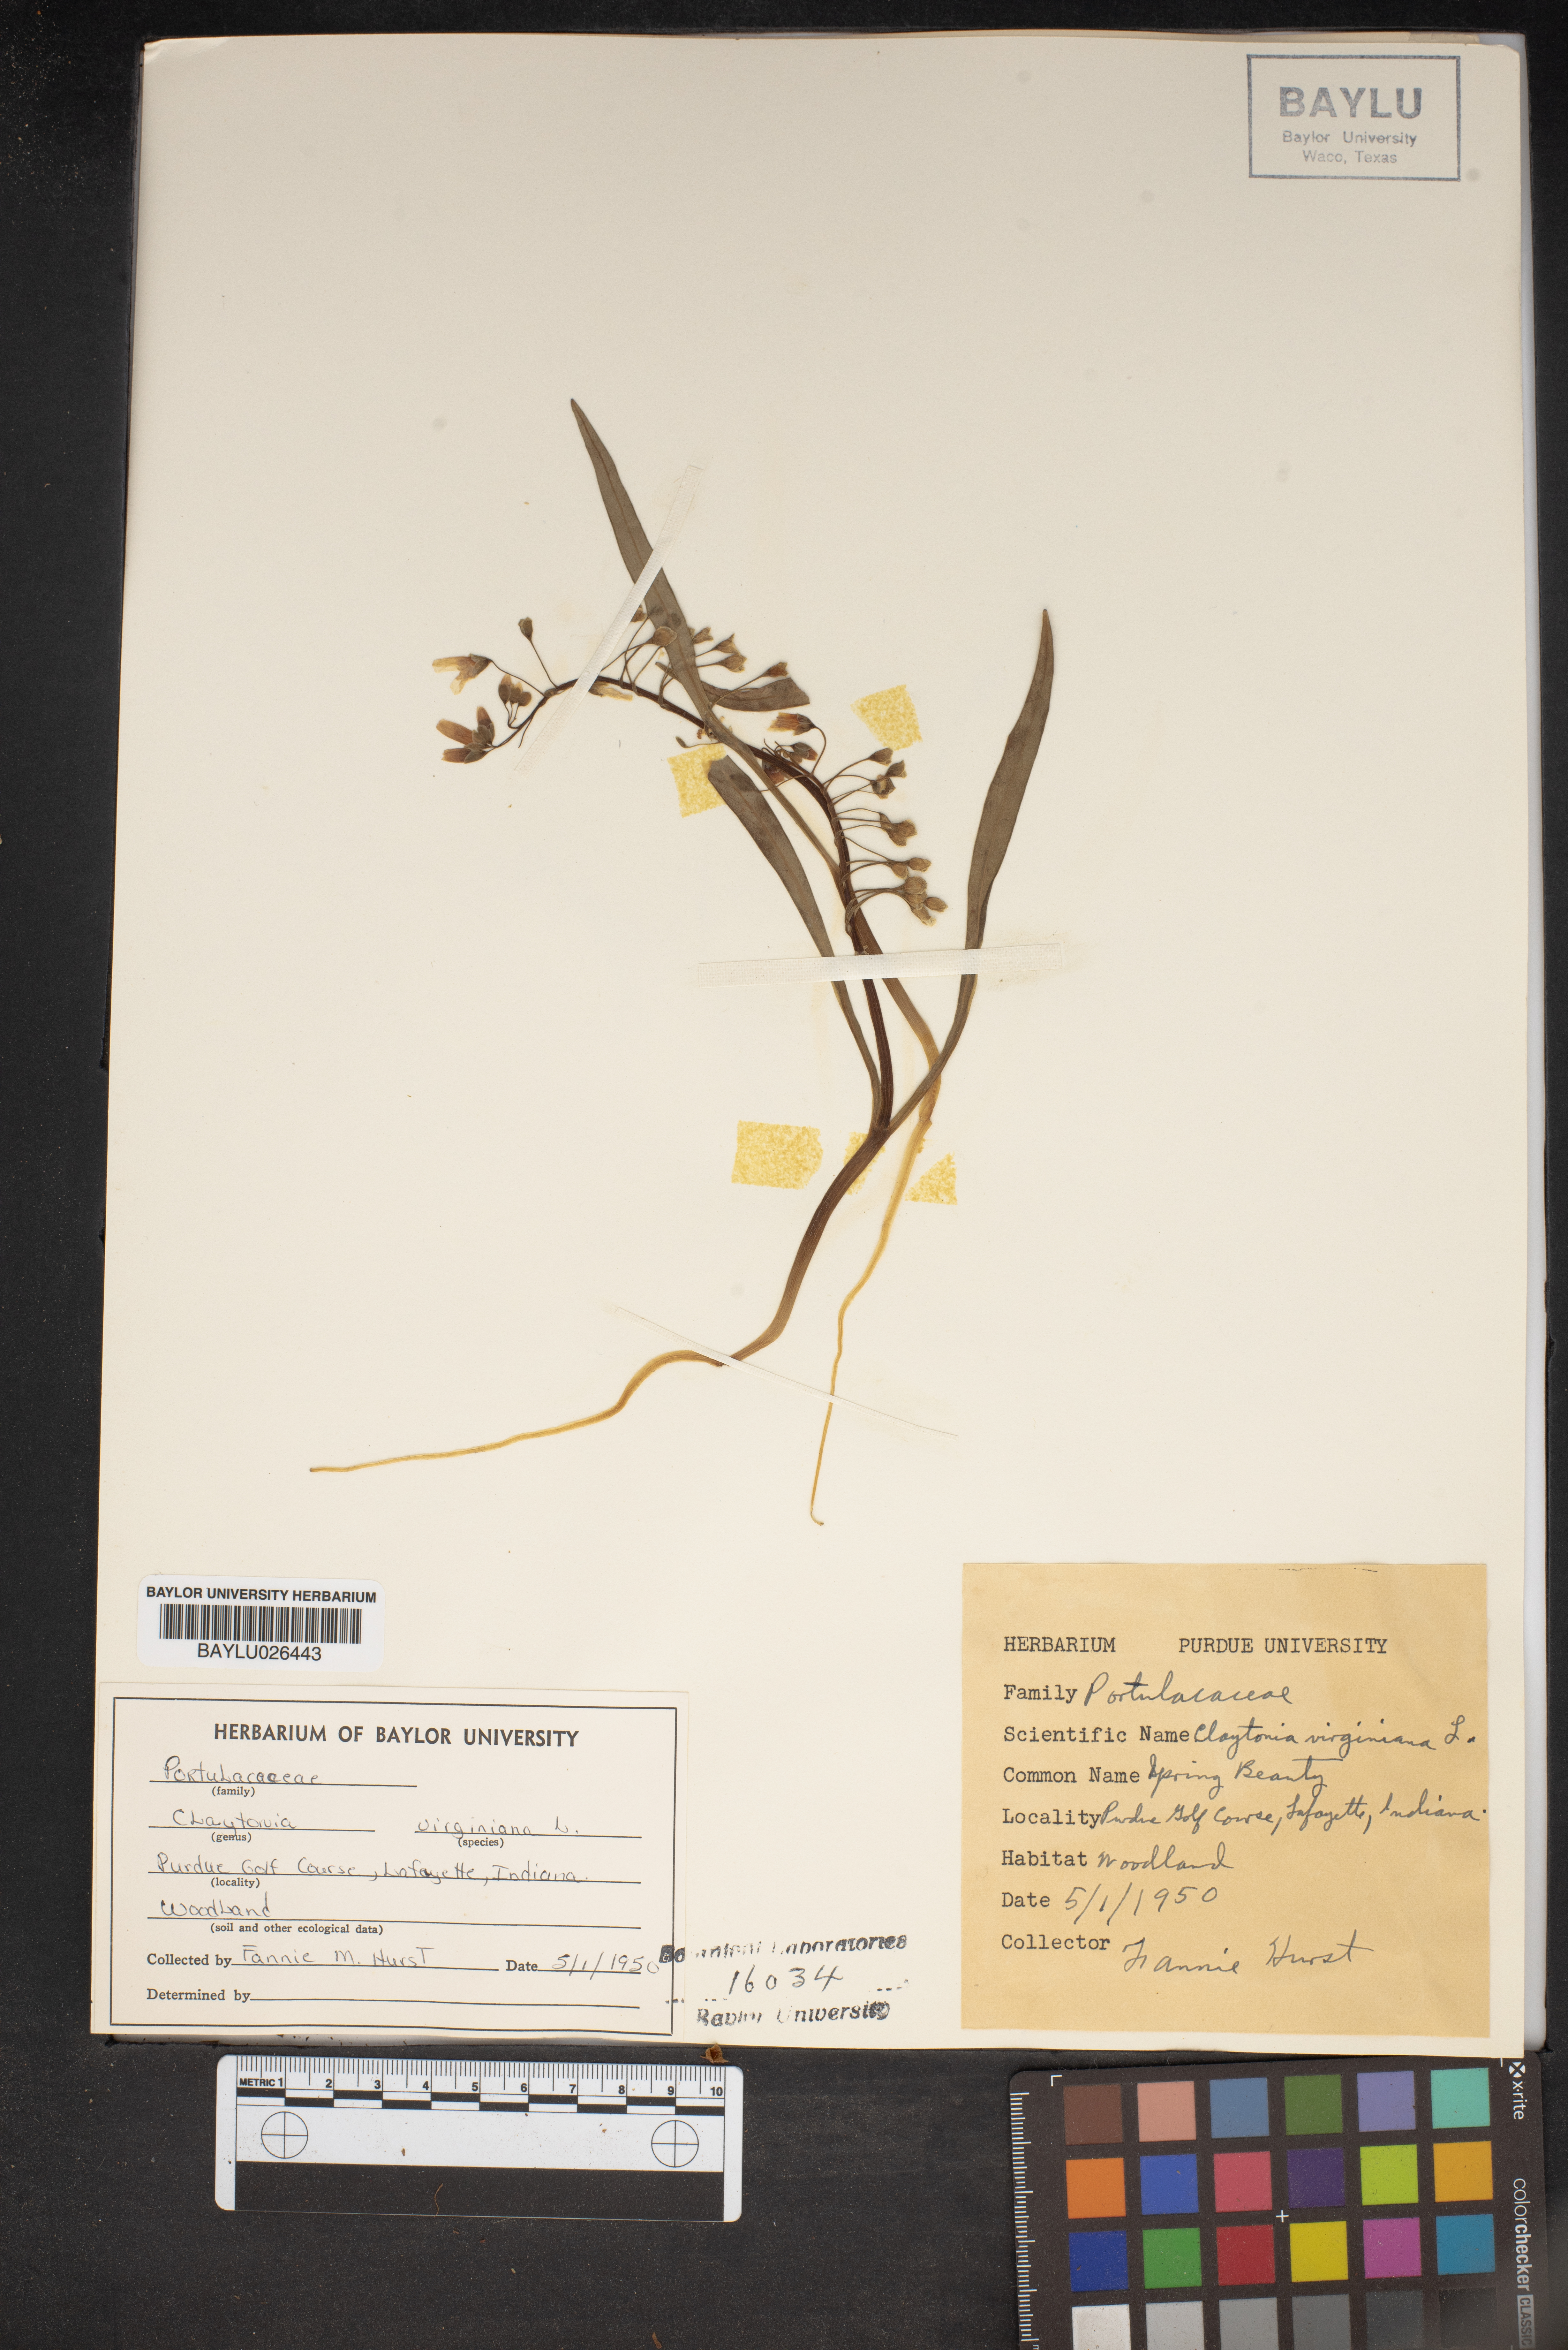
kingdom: Plantae
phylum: Tracheophyta
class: Magnoliopsida
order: Caryophyllales
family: Montiaceae
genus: Claytonia
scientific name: Claytonia virginica
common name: Virginia springbeauty
